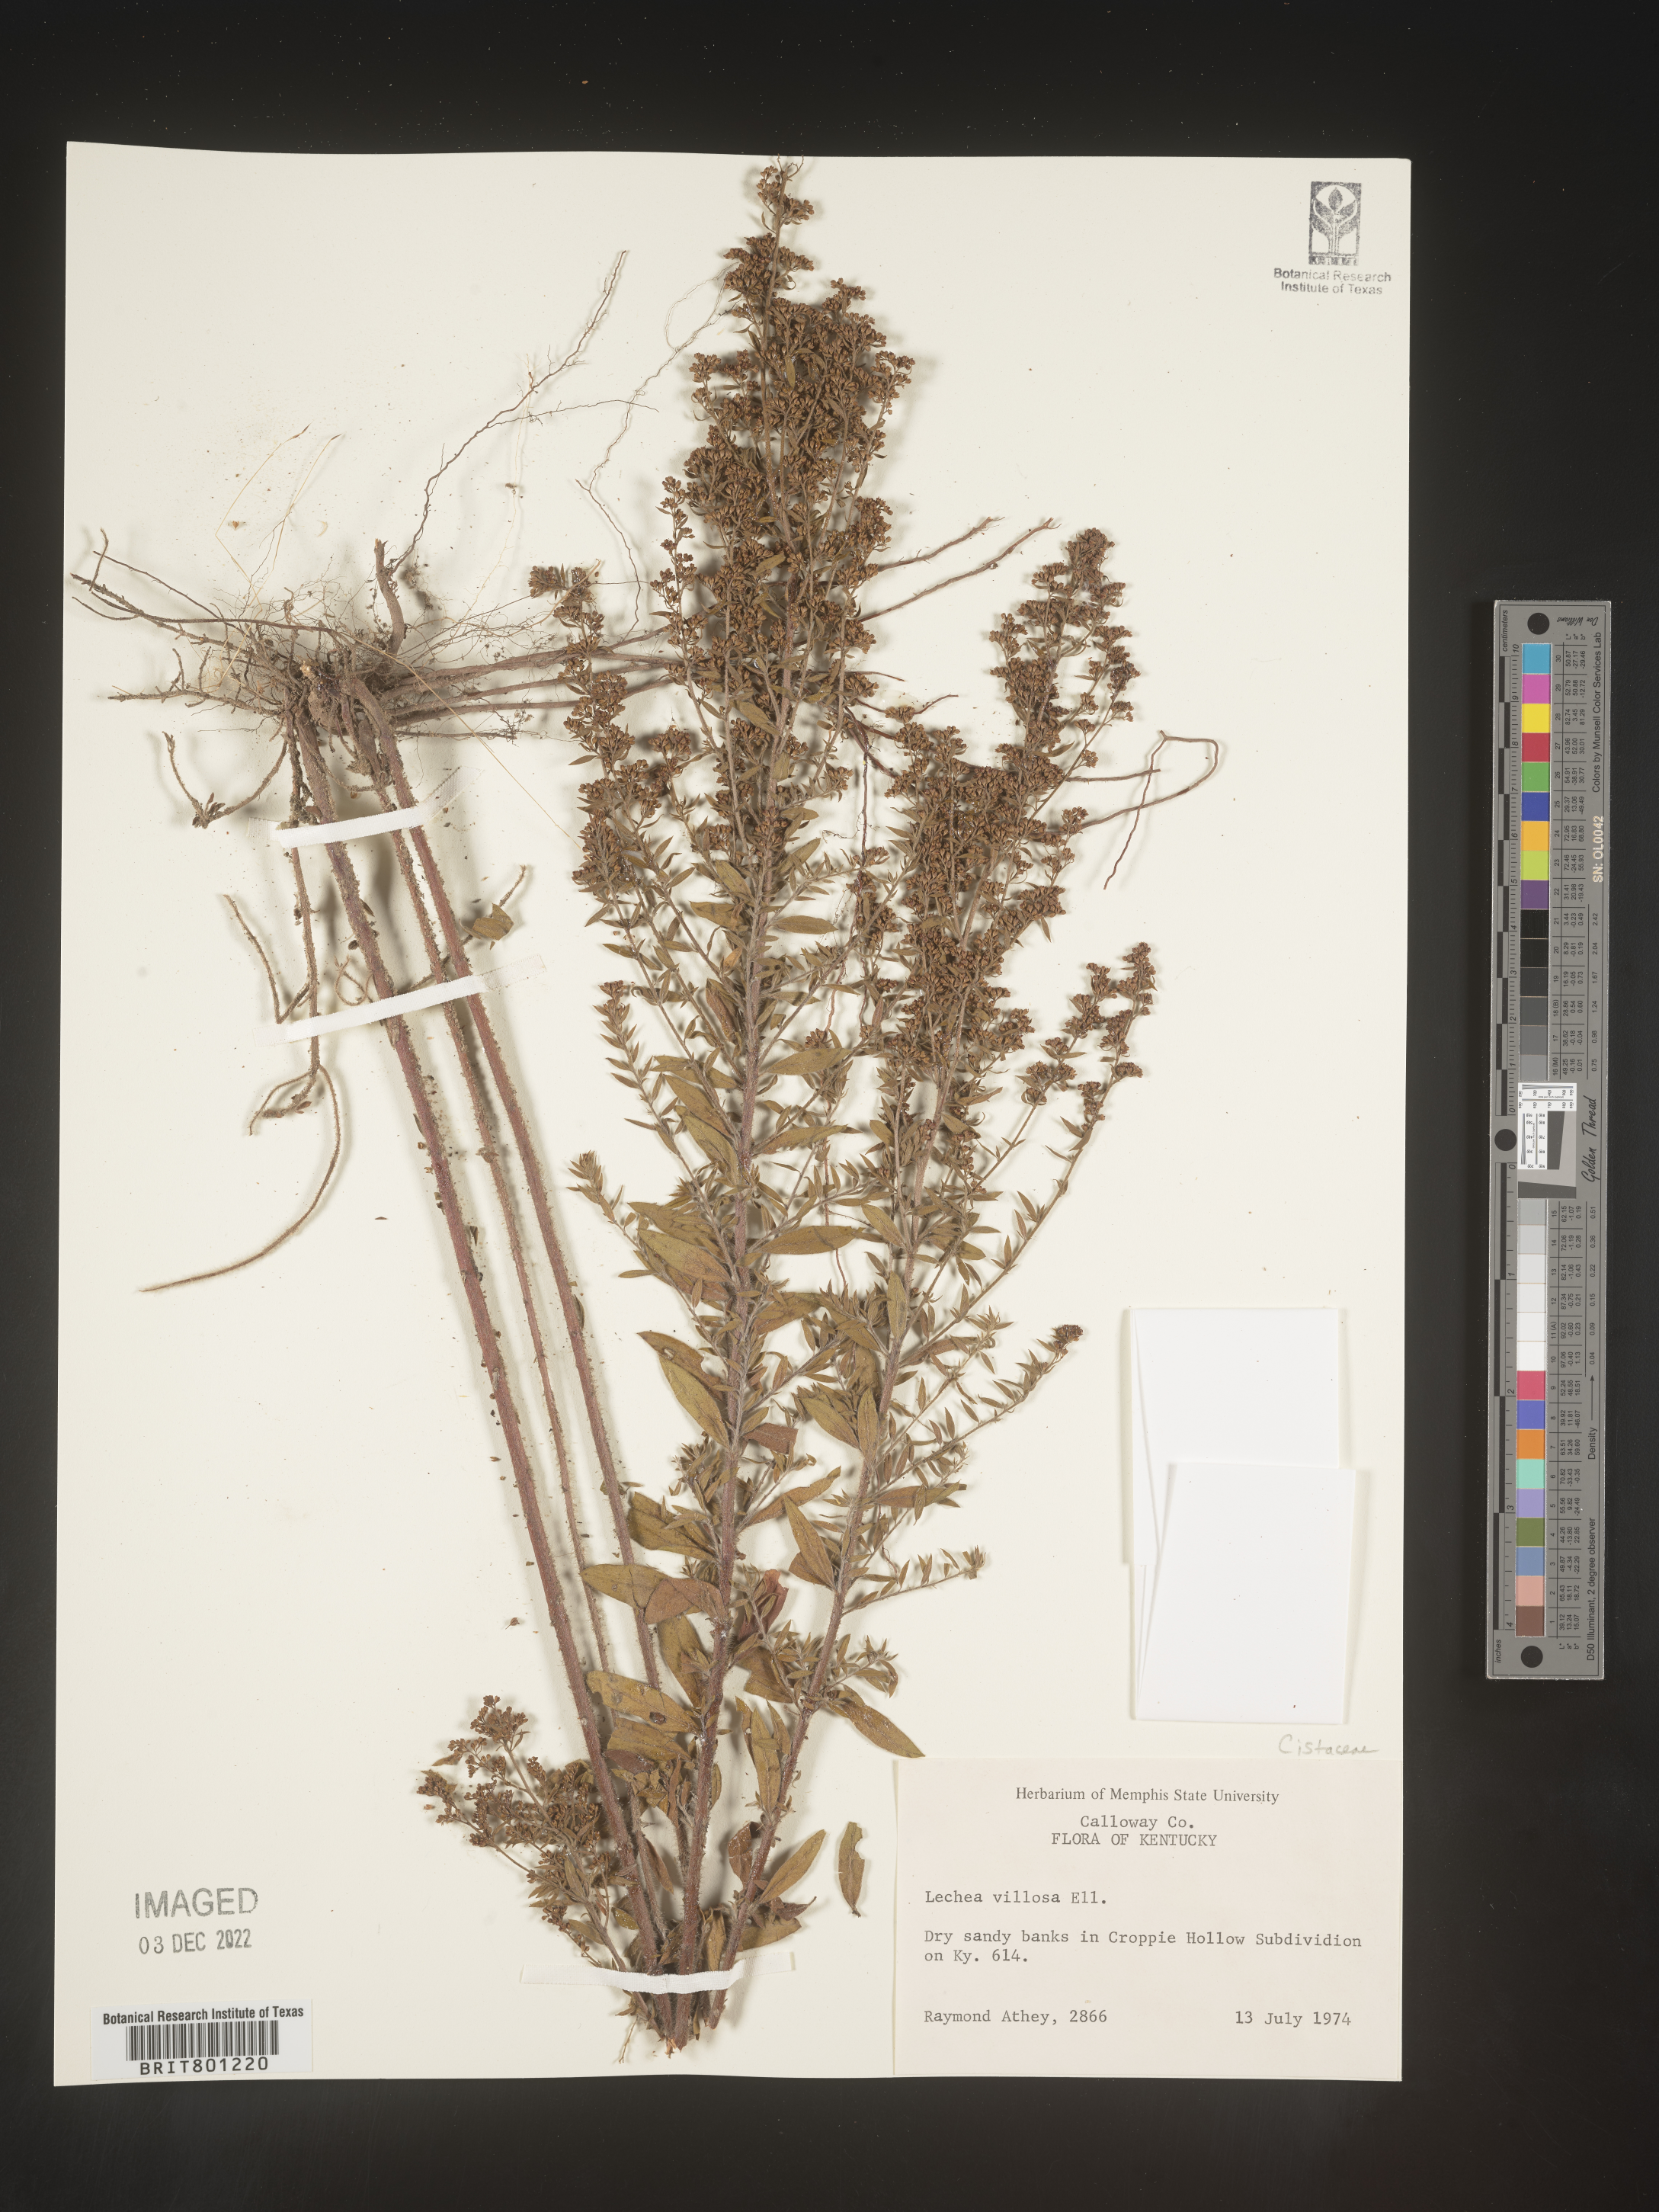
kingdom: Plantae
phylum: Tracheophyta
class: Magnoliopsida
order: Malvales
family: Cistaceae
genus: Lechea
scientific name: Lechea mucronata
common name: Hairy pinweed
